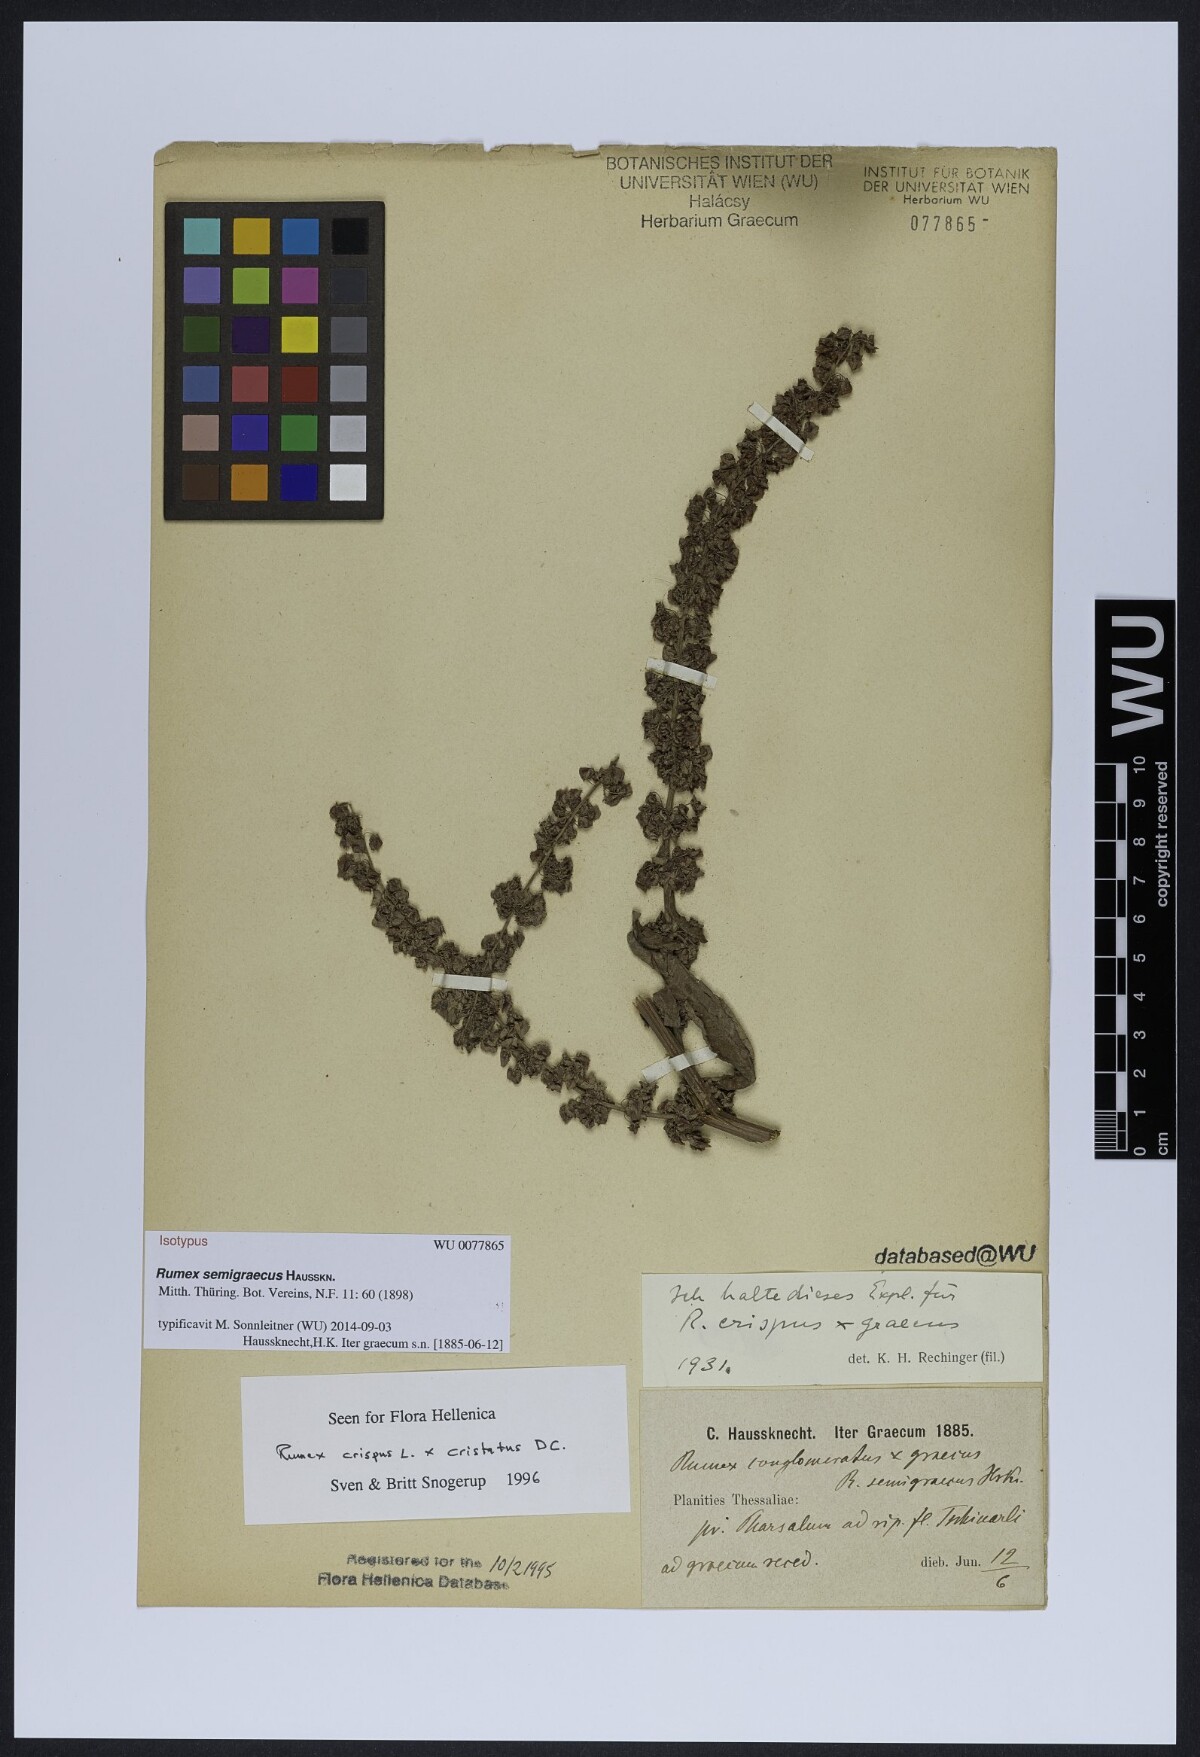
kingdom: Plantae
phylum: Tracheophyta
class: Magnoliopsida
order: Caryophyllales
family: Polygonaceae
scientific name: Polygonaceae
